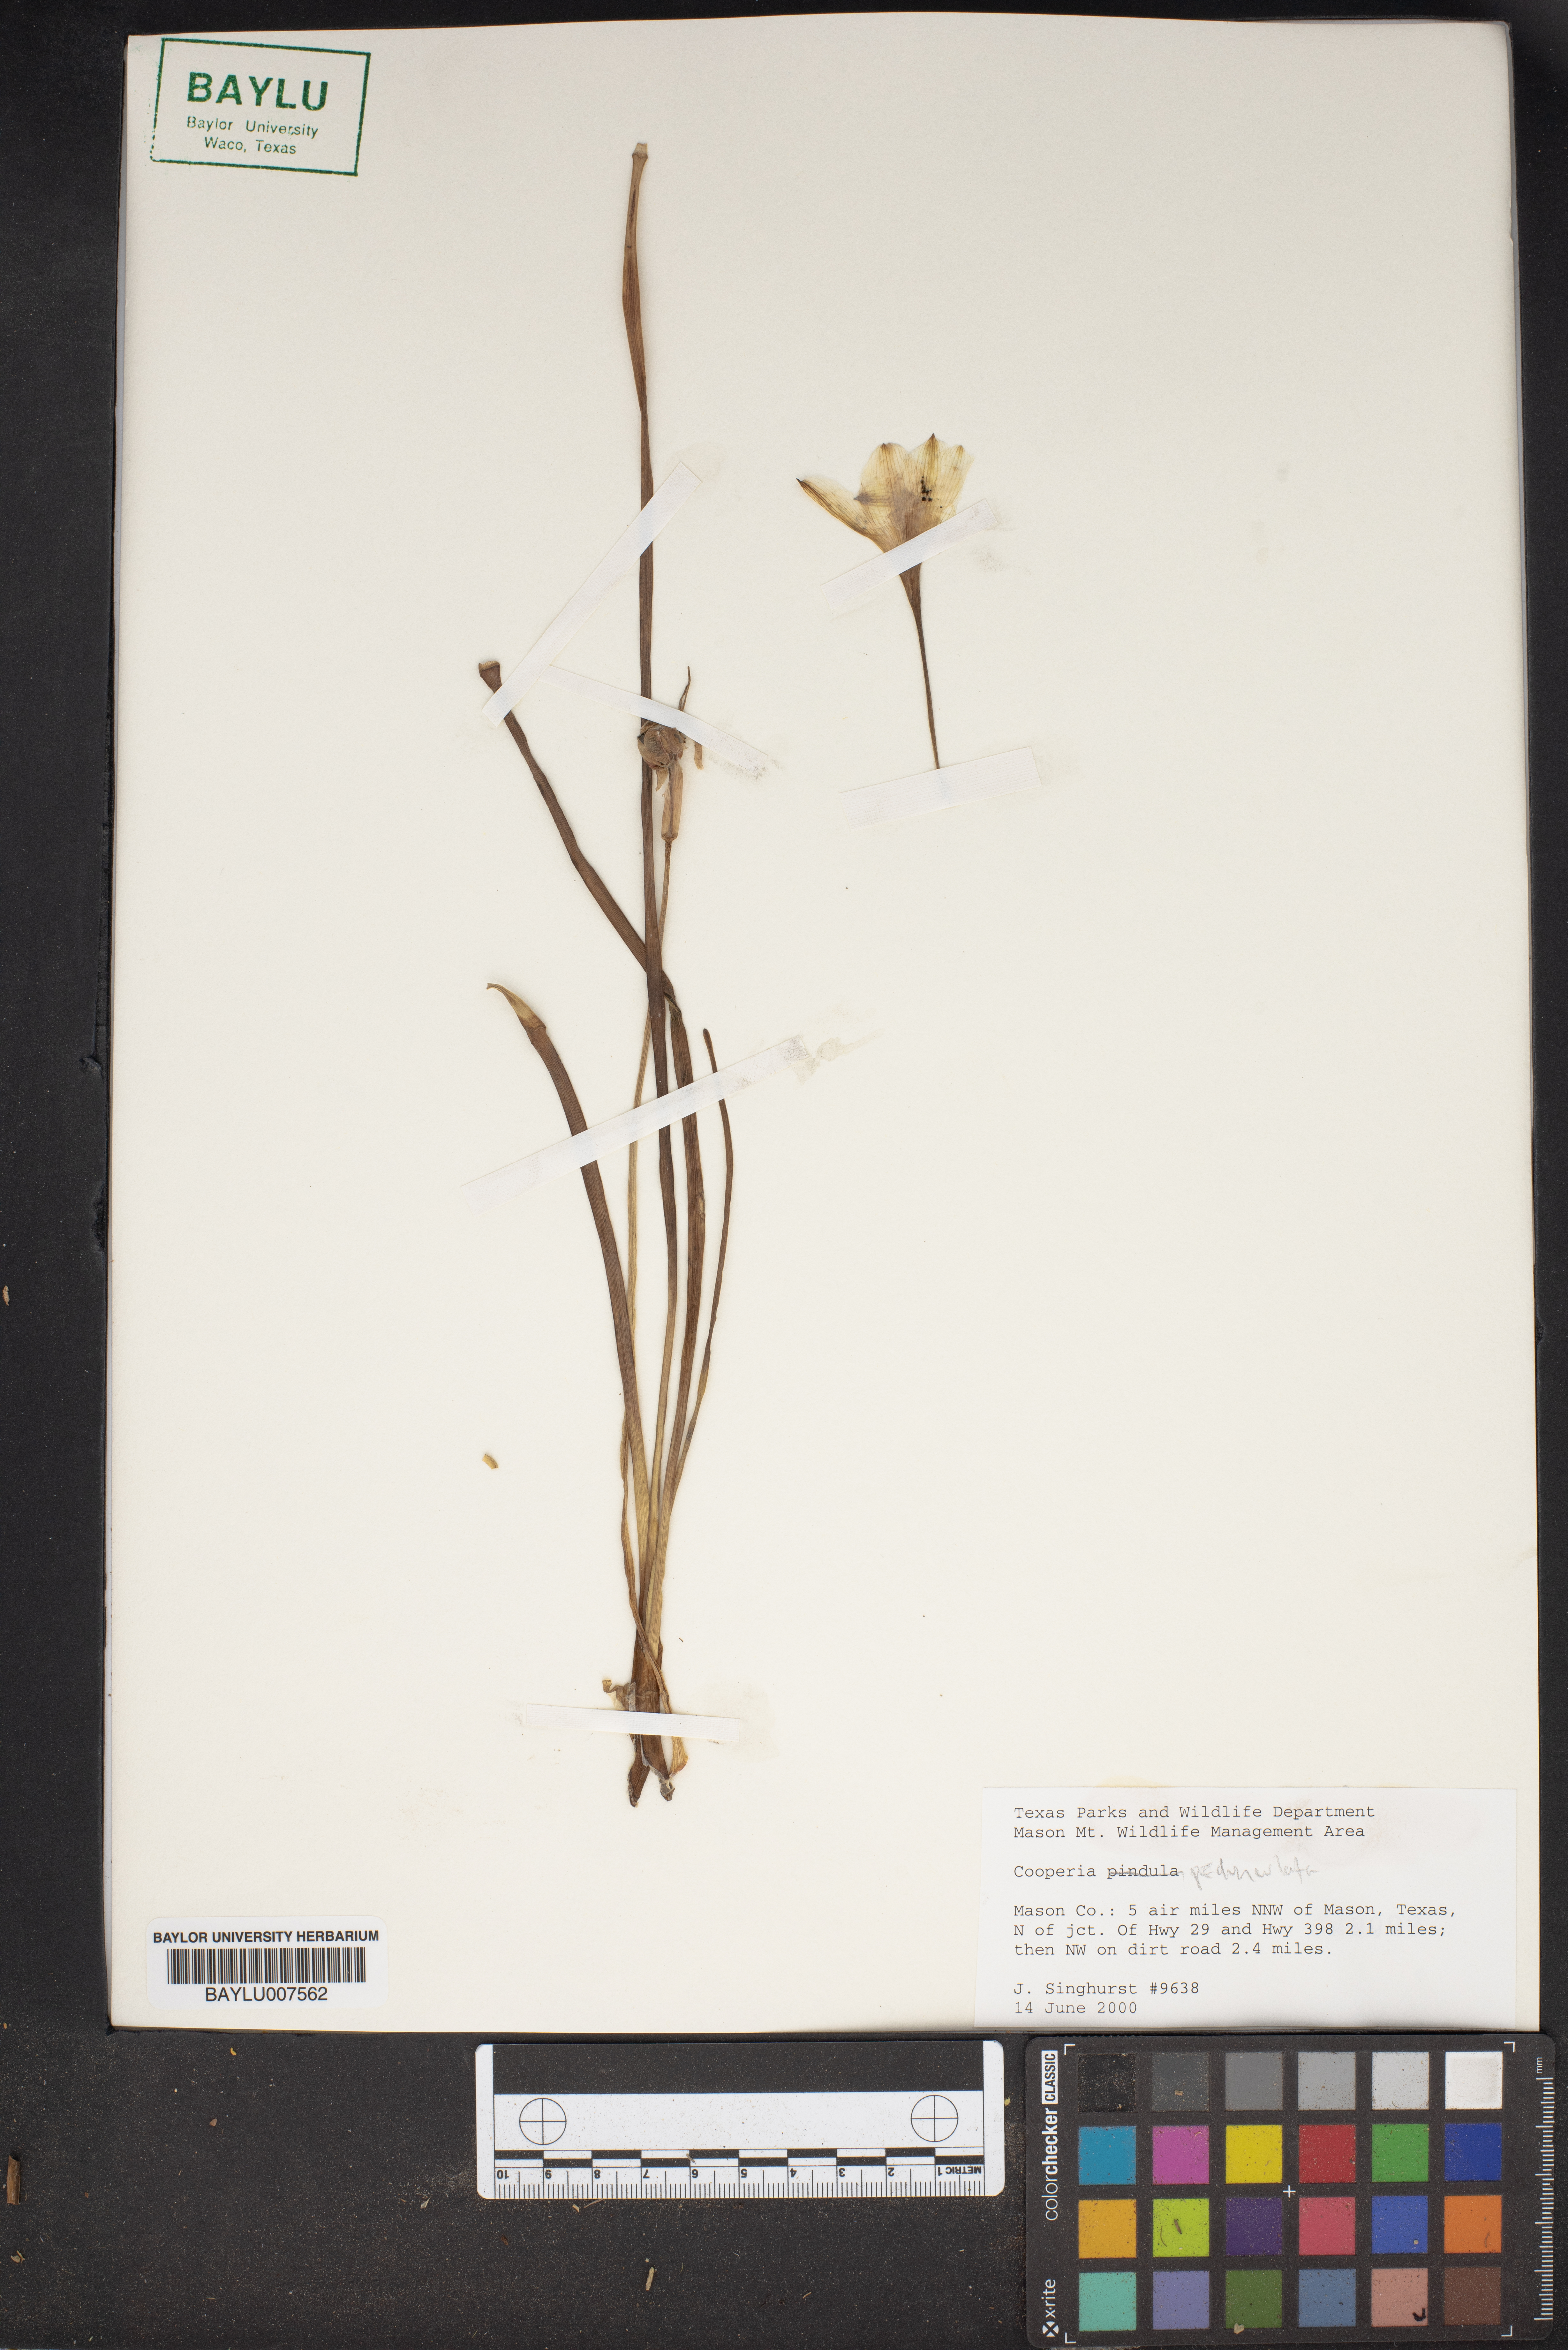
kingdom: Plantae
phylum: Tracheophyta
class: Liliopsida
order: Asparagales
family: Amaryllidaceae
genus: Zephyranthes
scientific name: Zephyranthes drummondii
